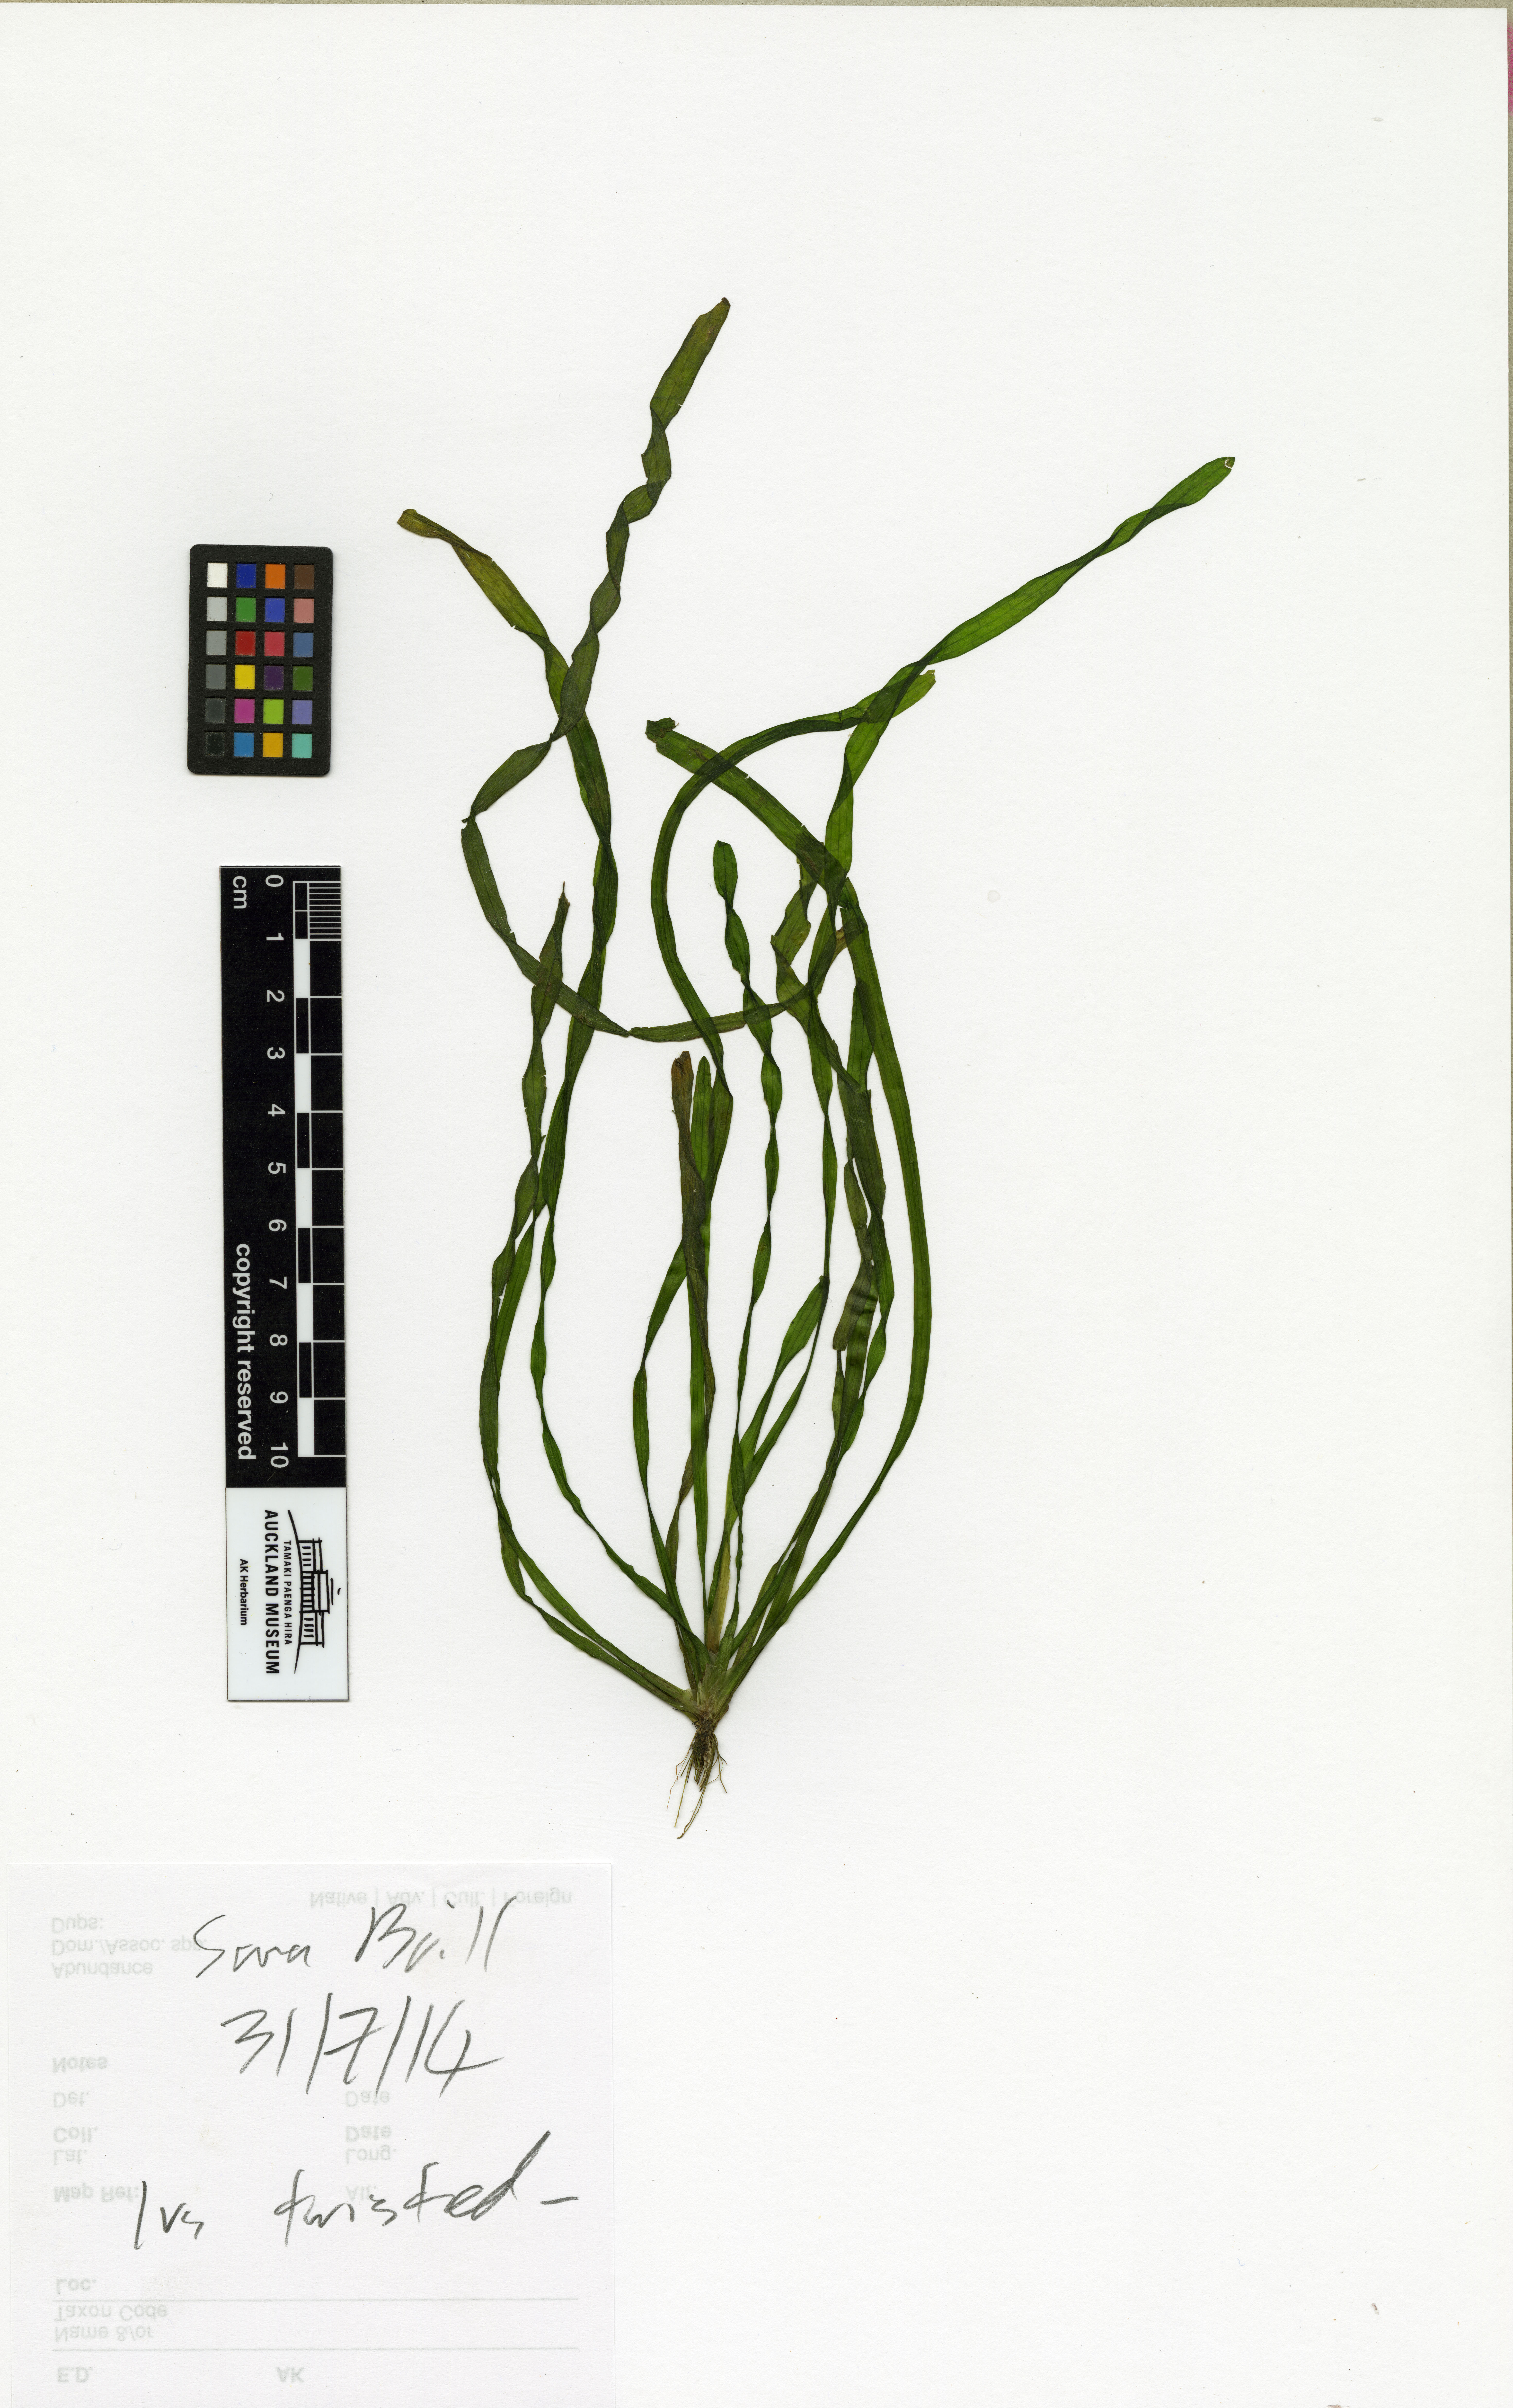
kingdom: Plantae
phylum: Tracheophyta
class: Liliopsida
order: Alismatales
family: Hydrocharitaceae
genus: Vallisneria
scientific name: Vallisneria natans
